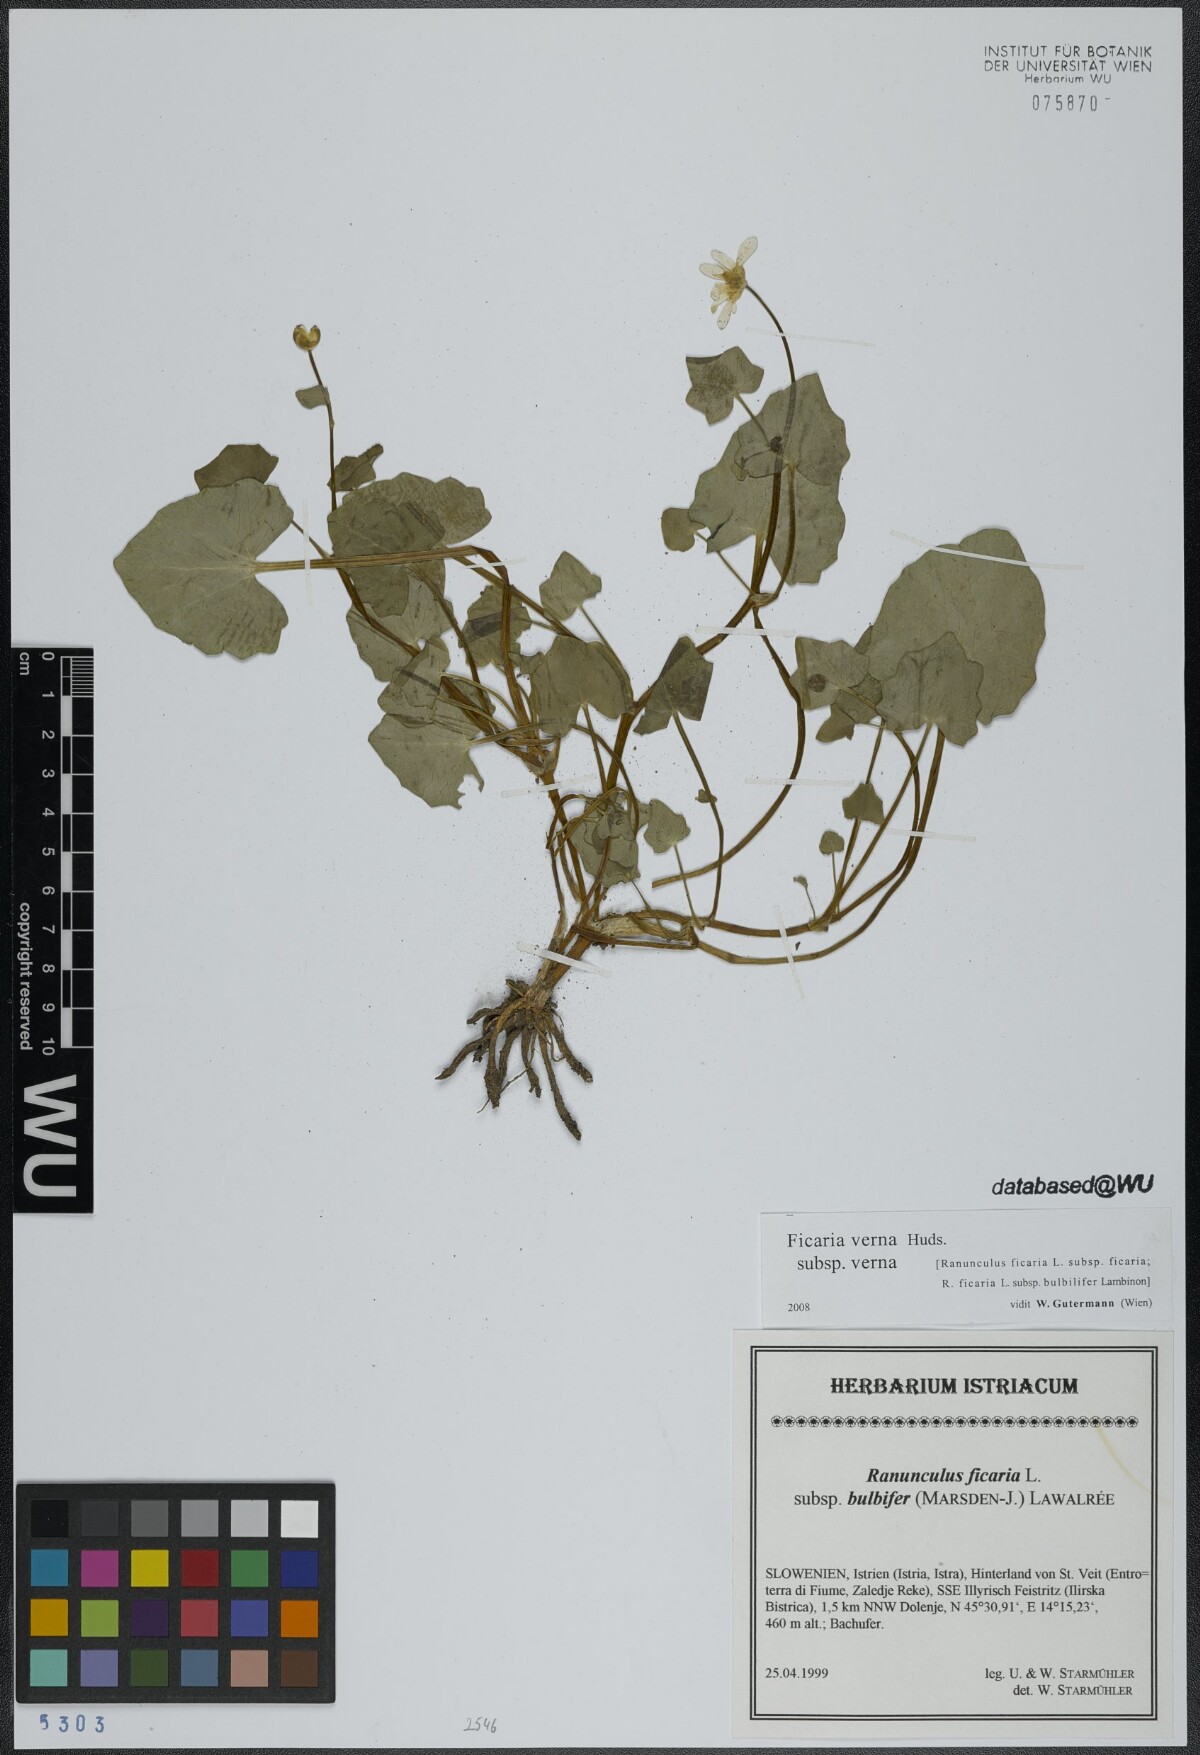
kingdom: Plantae
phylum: Tracheophyta
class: Magnoliopsida
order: Ranunculales
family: Ranunculaceae
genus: Ficaria
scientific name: Ficaria verna
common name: Lesser celandine
